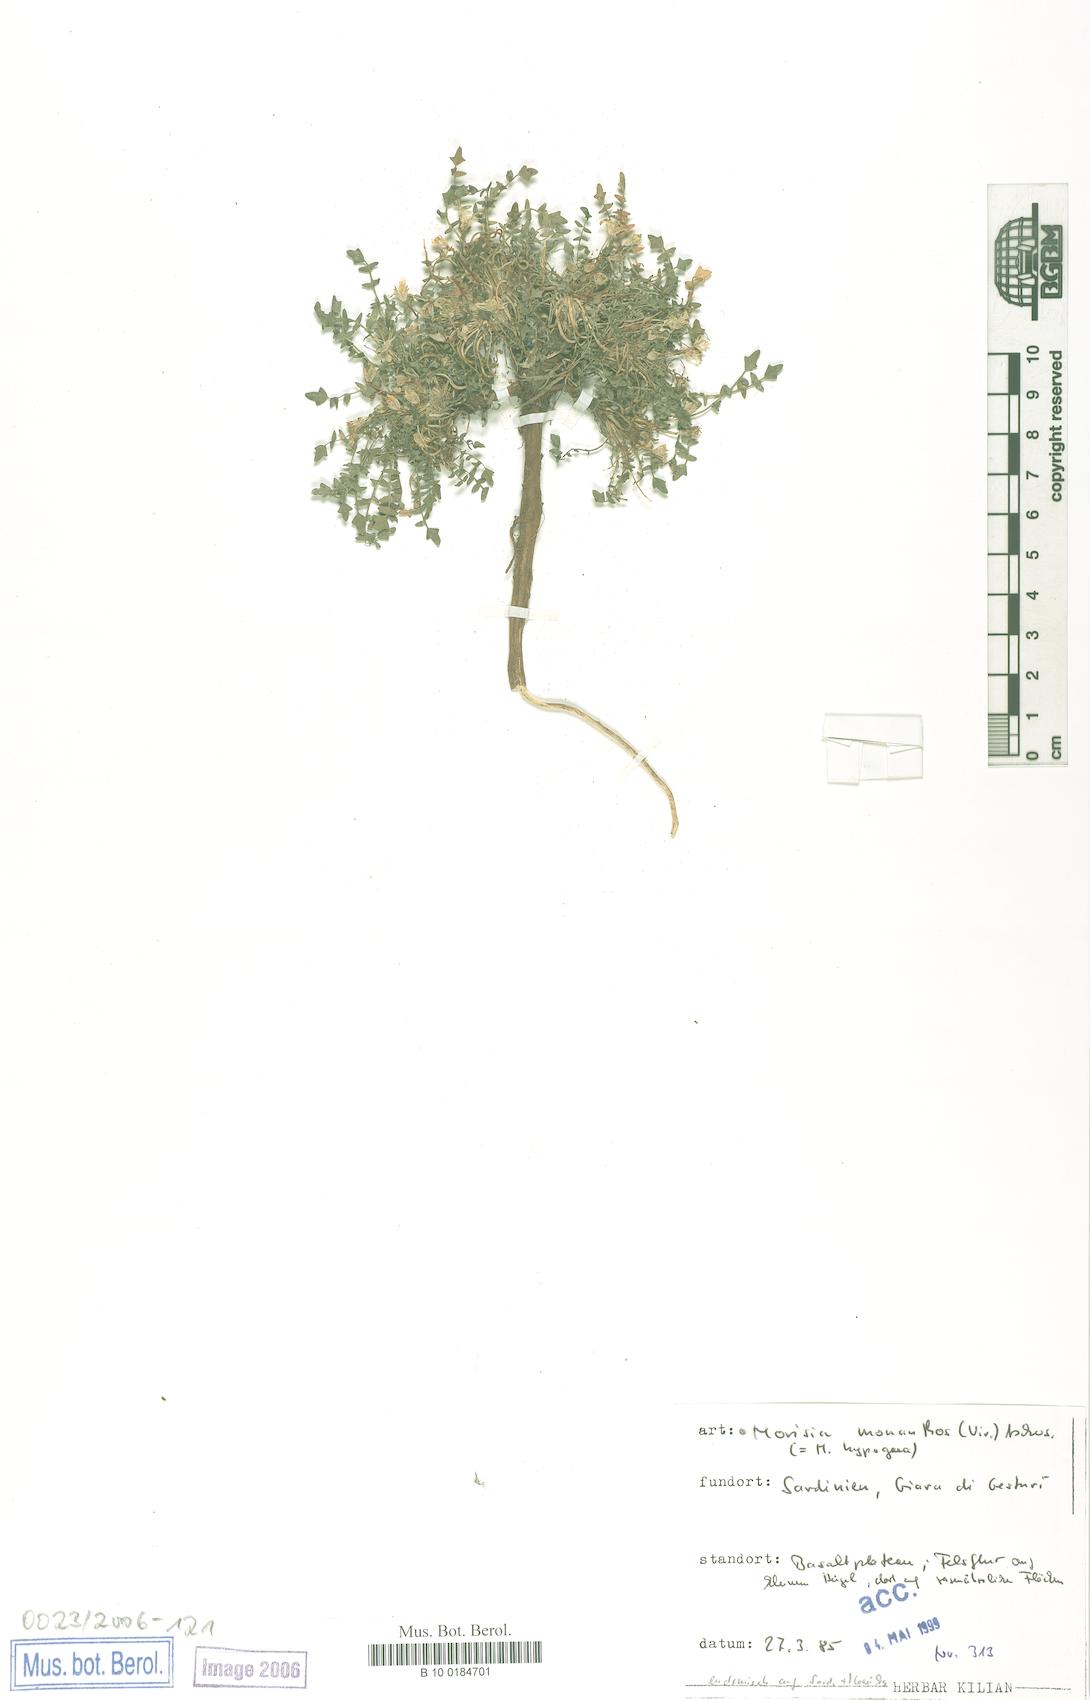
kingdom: Plantae
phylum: Tracheophyta
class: Magnoliopsida
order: Brassicales
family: Brassicaceae
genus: Morisia
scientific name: Morisia monanthos
